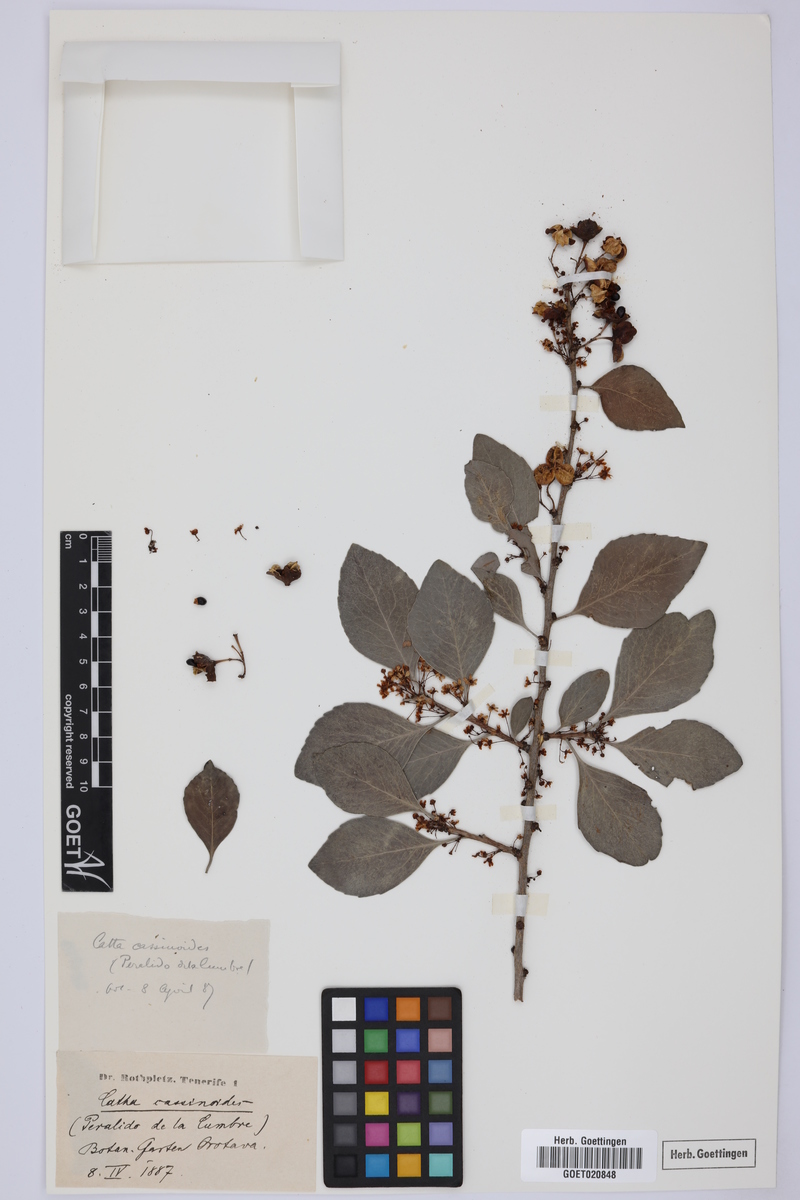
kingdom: Plantae
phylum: Tracheophyta
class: Magnoliopsida
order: Celastrales
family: Celastraceae
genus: Gymnosporia
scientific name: Gymnosporia cassinoides
